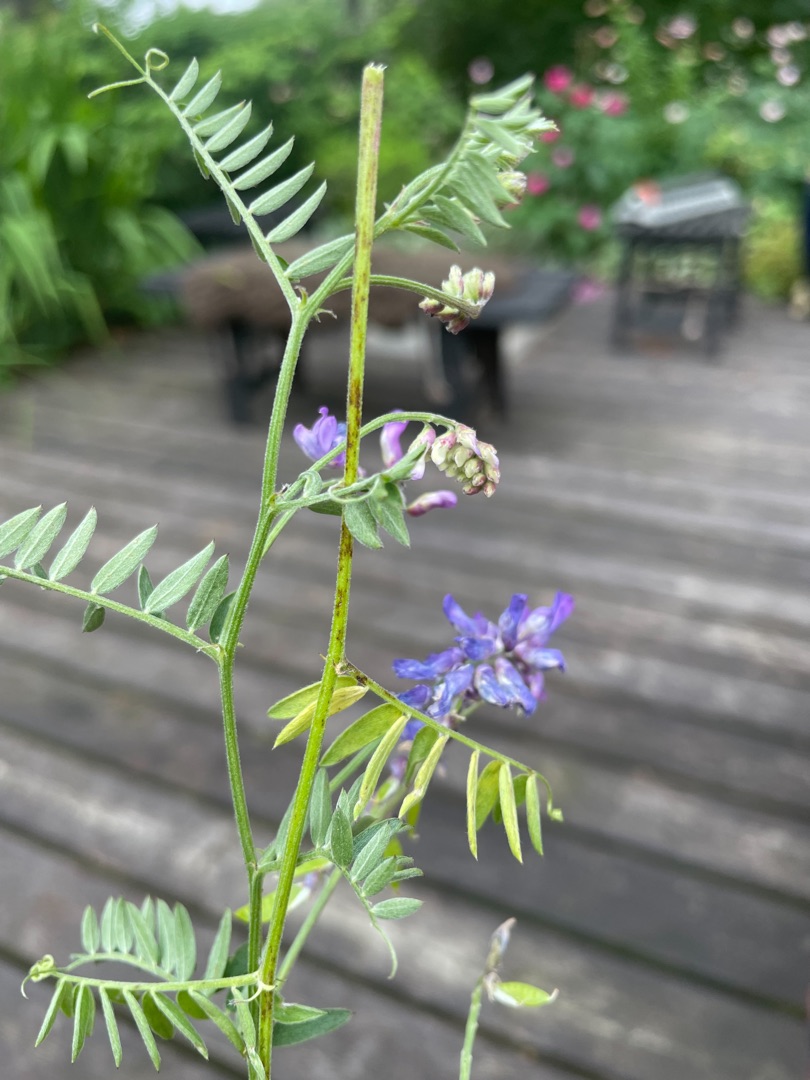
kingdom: Plantae
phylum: Tracheophyta
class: Magnoliopsida
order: Fabales
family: Fabaceae
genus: Vicia
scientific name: Vicia cracca
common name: Muse-vikke
